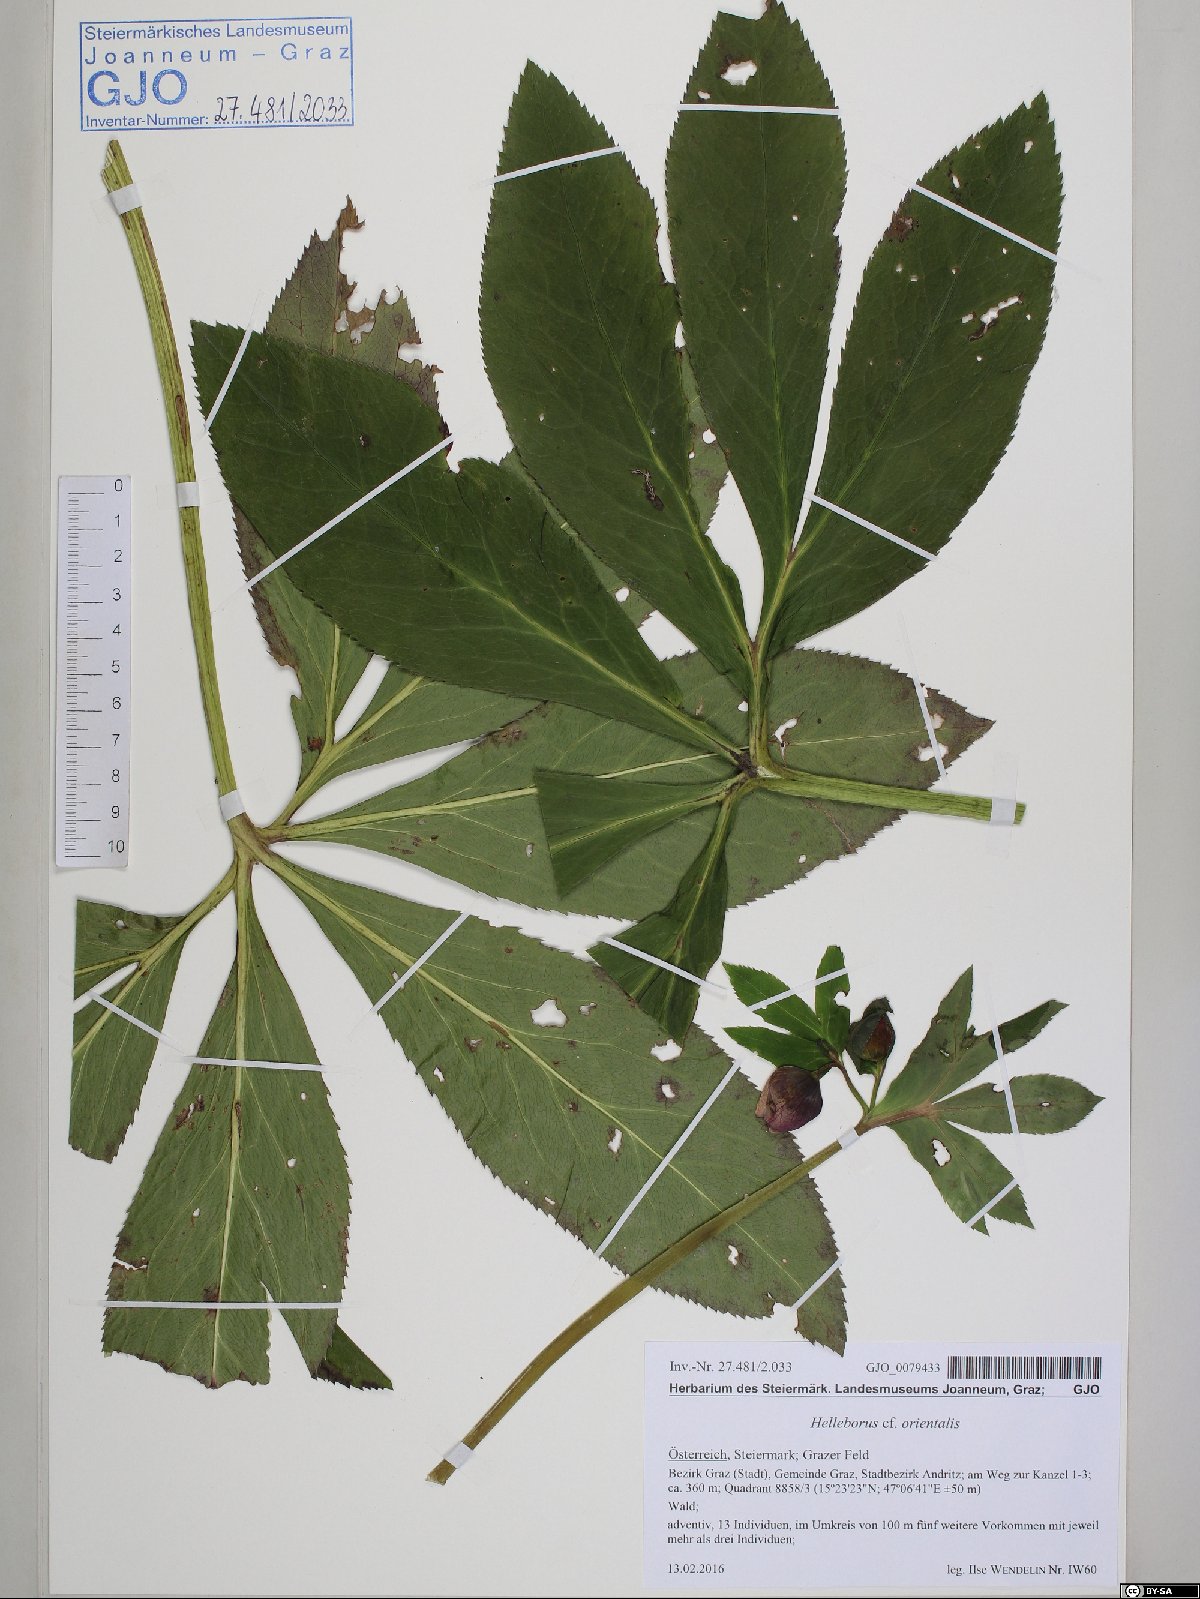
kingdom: Plantae
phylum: Tracheophyta
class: Magnoliopsida
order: Ranunculales
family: Ranunculaceae
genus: Helleborus
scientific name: Helleborus orientalis
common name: Lenten-rose
